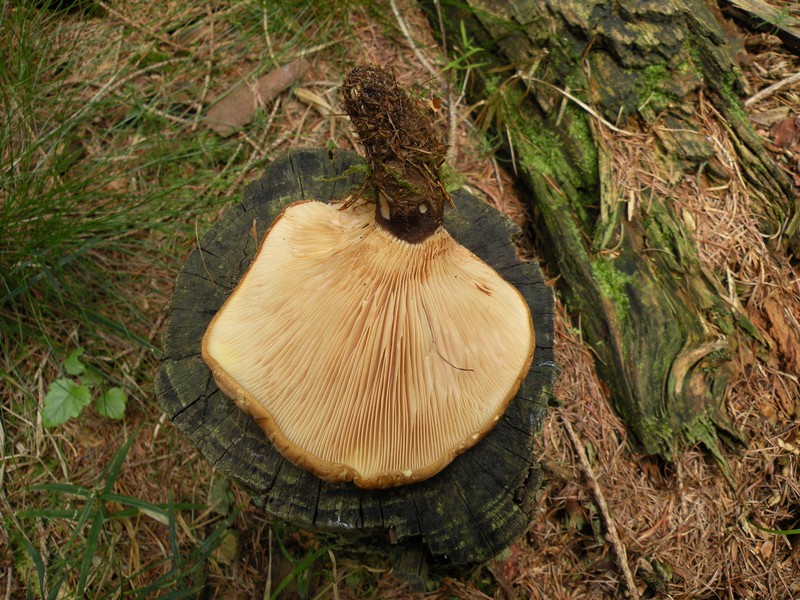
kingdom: Fungi
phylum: Basidiomycota
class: Agaricomycetes
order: Boletales
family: Tapinellaceae
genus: Tapinella
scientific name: Tapinella atrotomentosa
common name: sortfiltet viftesvamp
